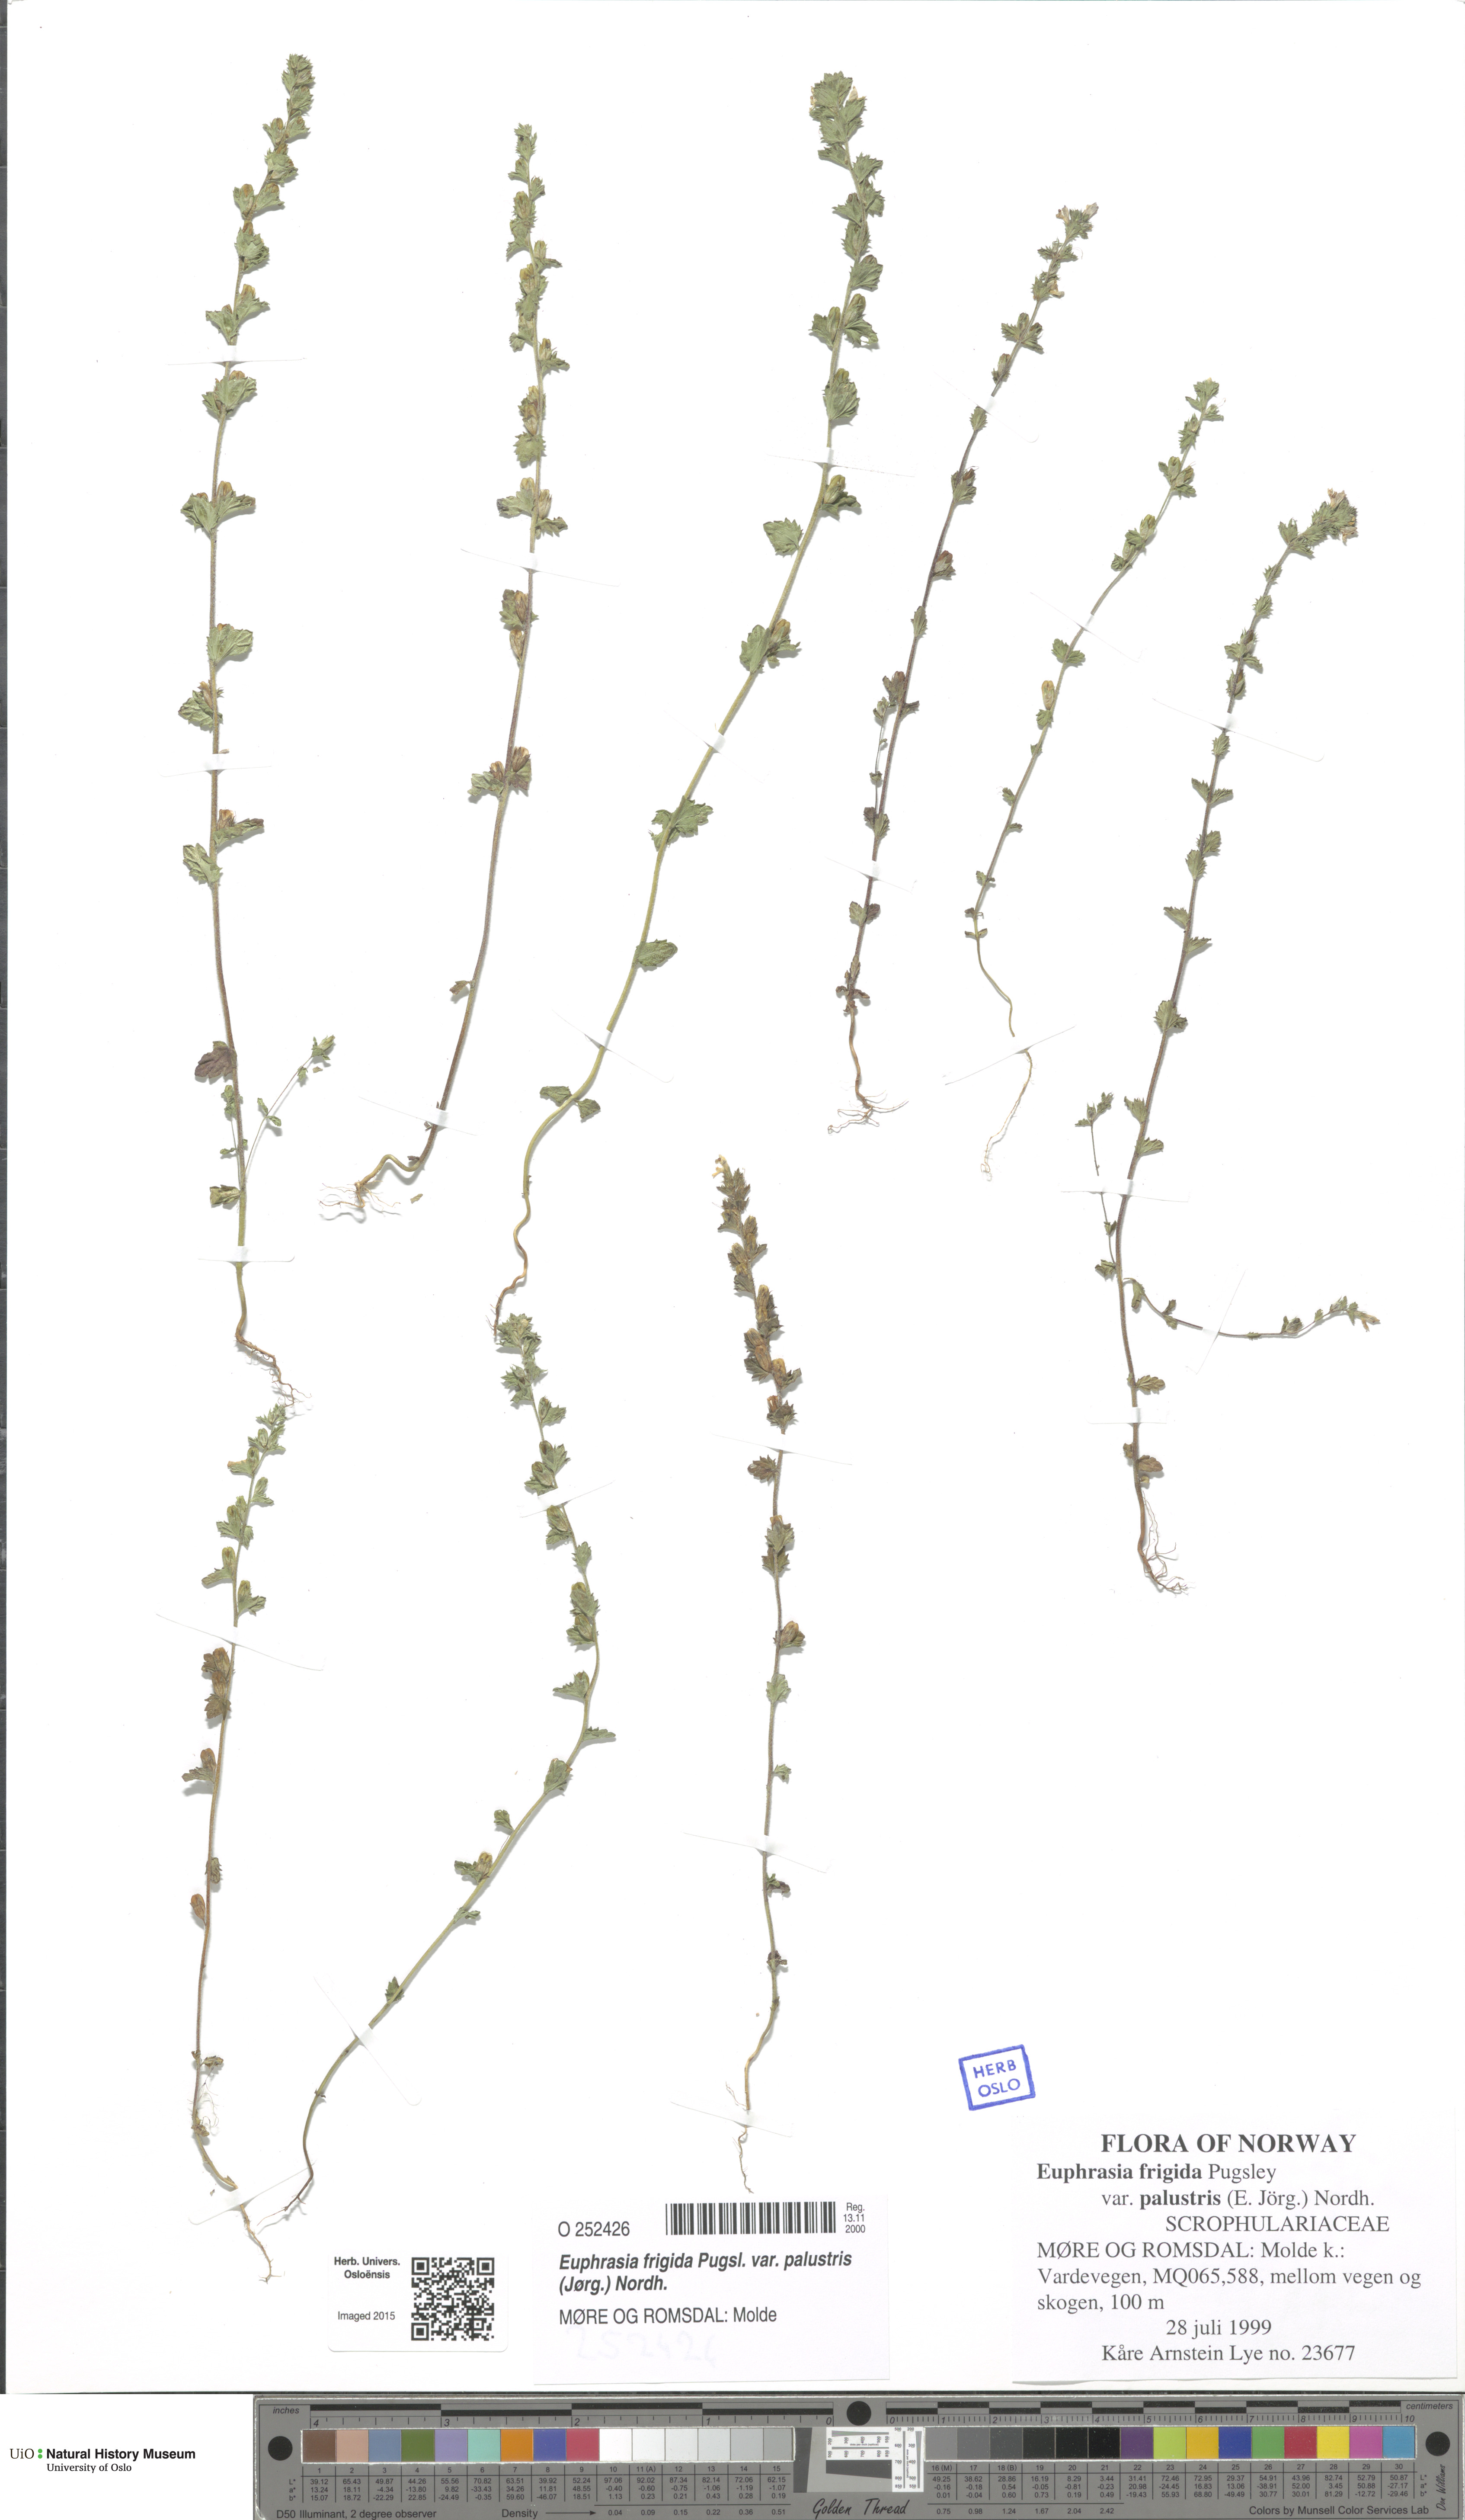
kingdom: Plantae
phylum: Tracheophyta
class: Magnoliopsida
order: Lamiales
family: Orobanchaceae
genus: Euphrasia
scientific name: Euphrasia wettsteinii
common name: Wettstein's eyebright
